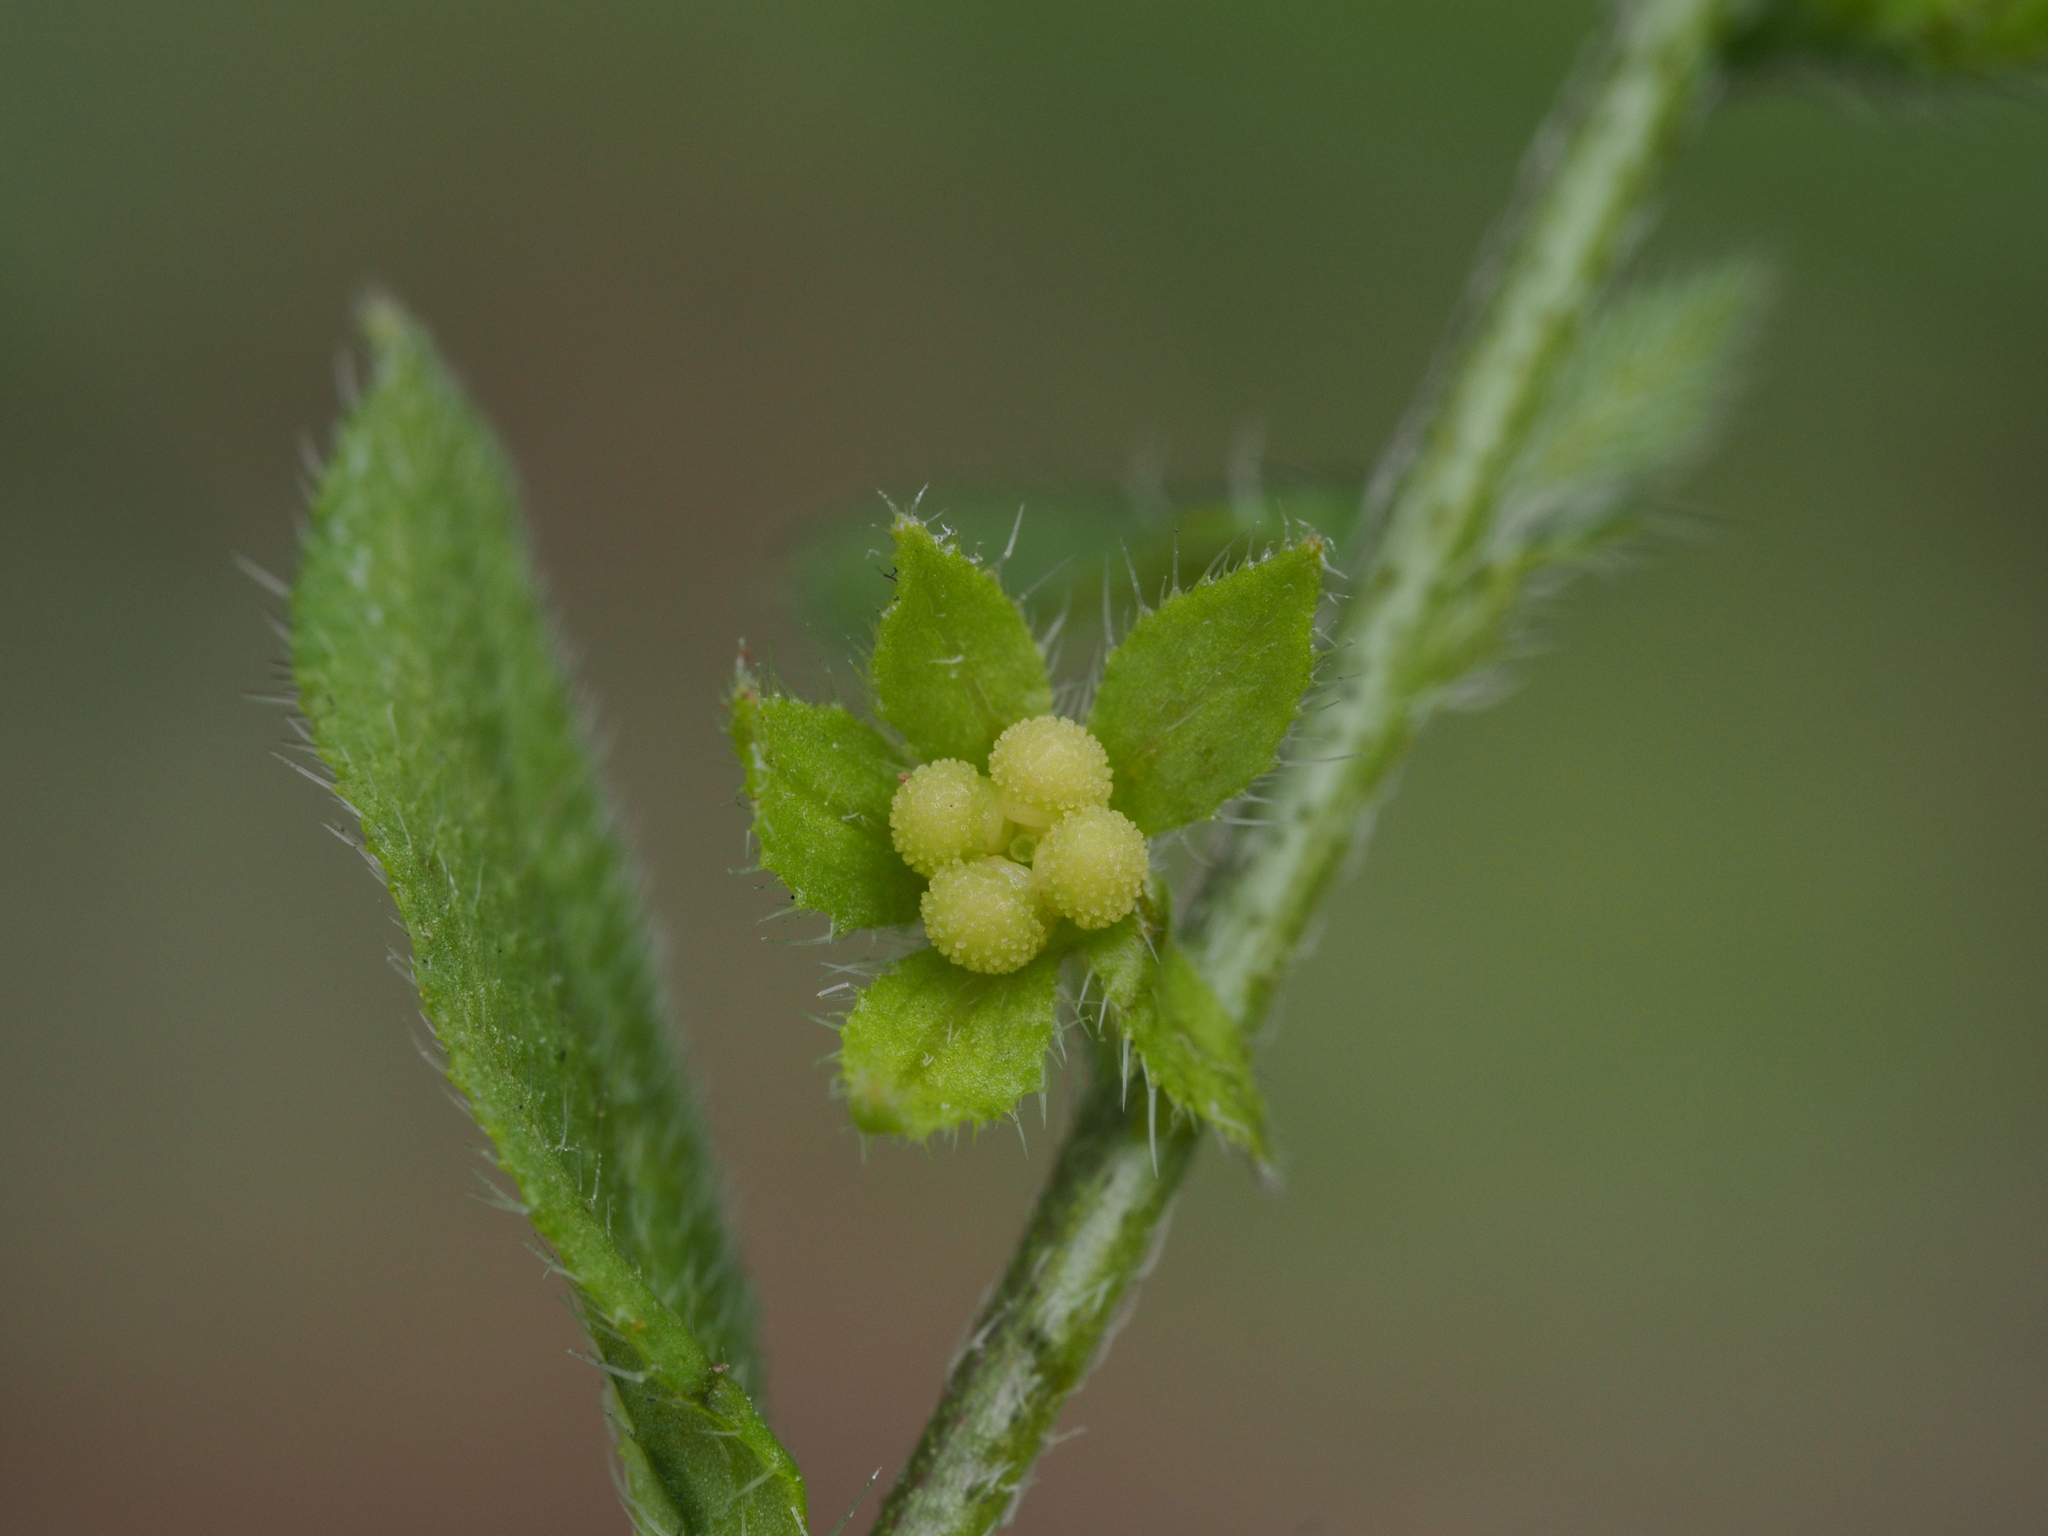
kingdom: Plantae
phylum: Tracheophyta
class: Magnoliopsida
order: Boraginales
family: Boraginaceae
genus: Bothriospermum
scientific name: Bothriospermum zeylanicum
